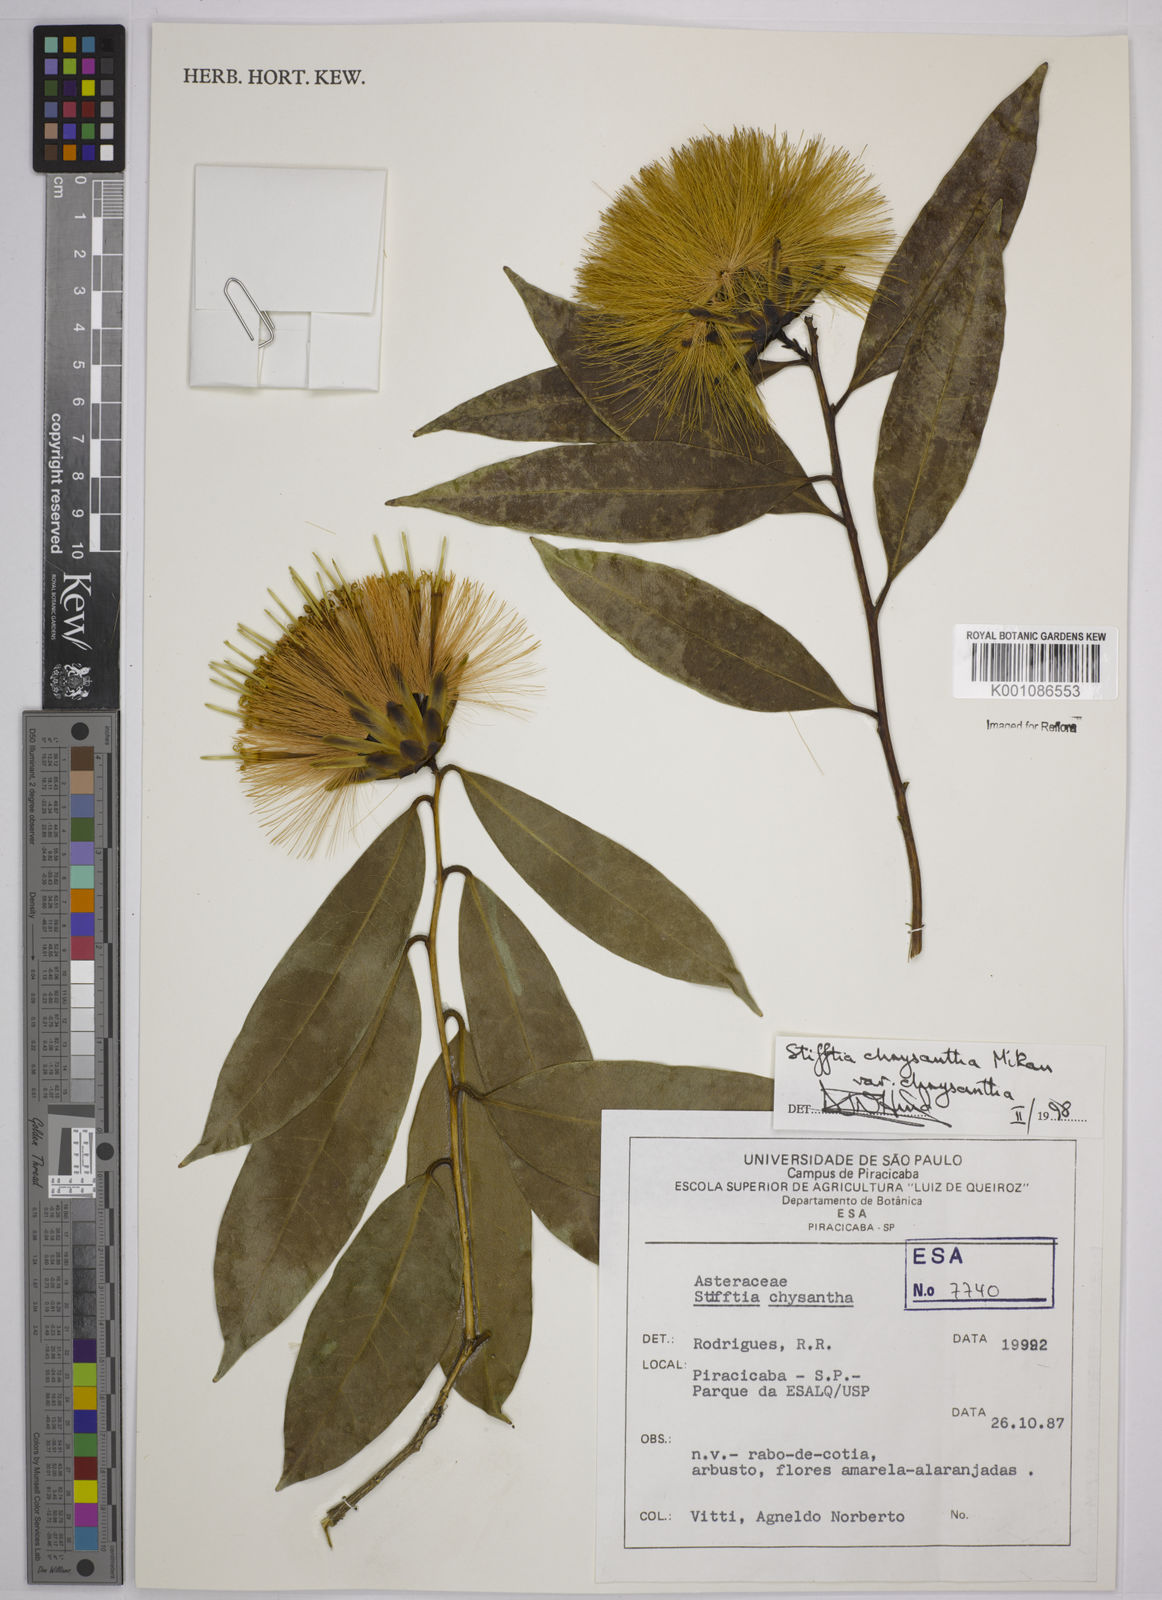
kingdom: Plantae
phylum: Tracheophyta
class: Magnoliopsida
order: Asterales
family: Asteraceae
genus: Stifftia
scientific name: Stifftia chrysantha
